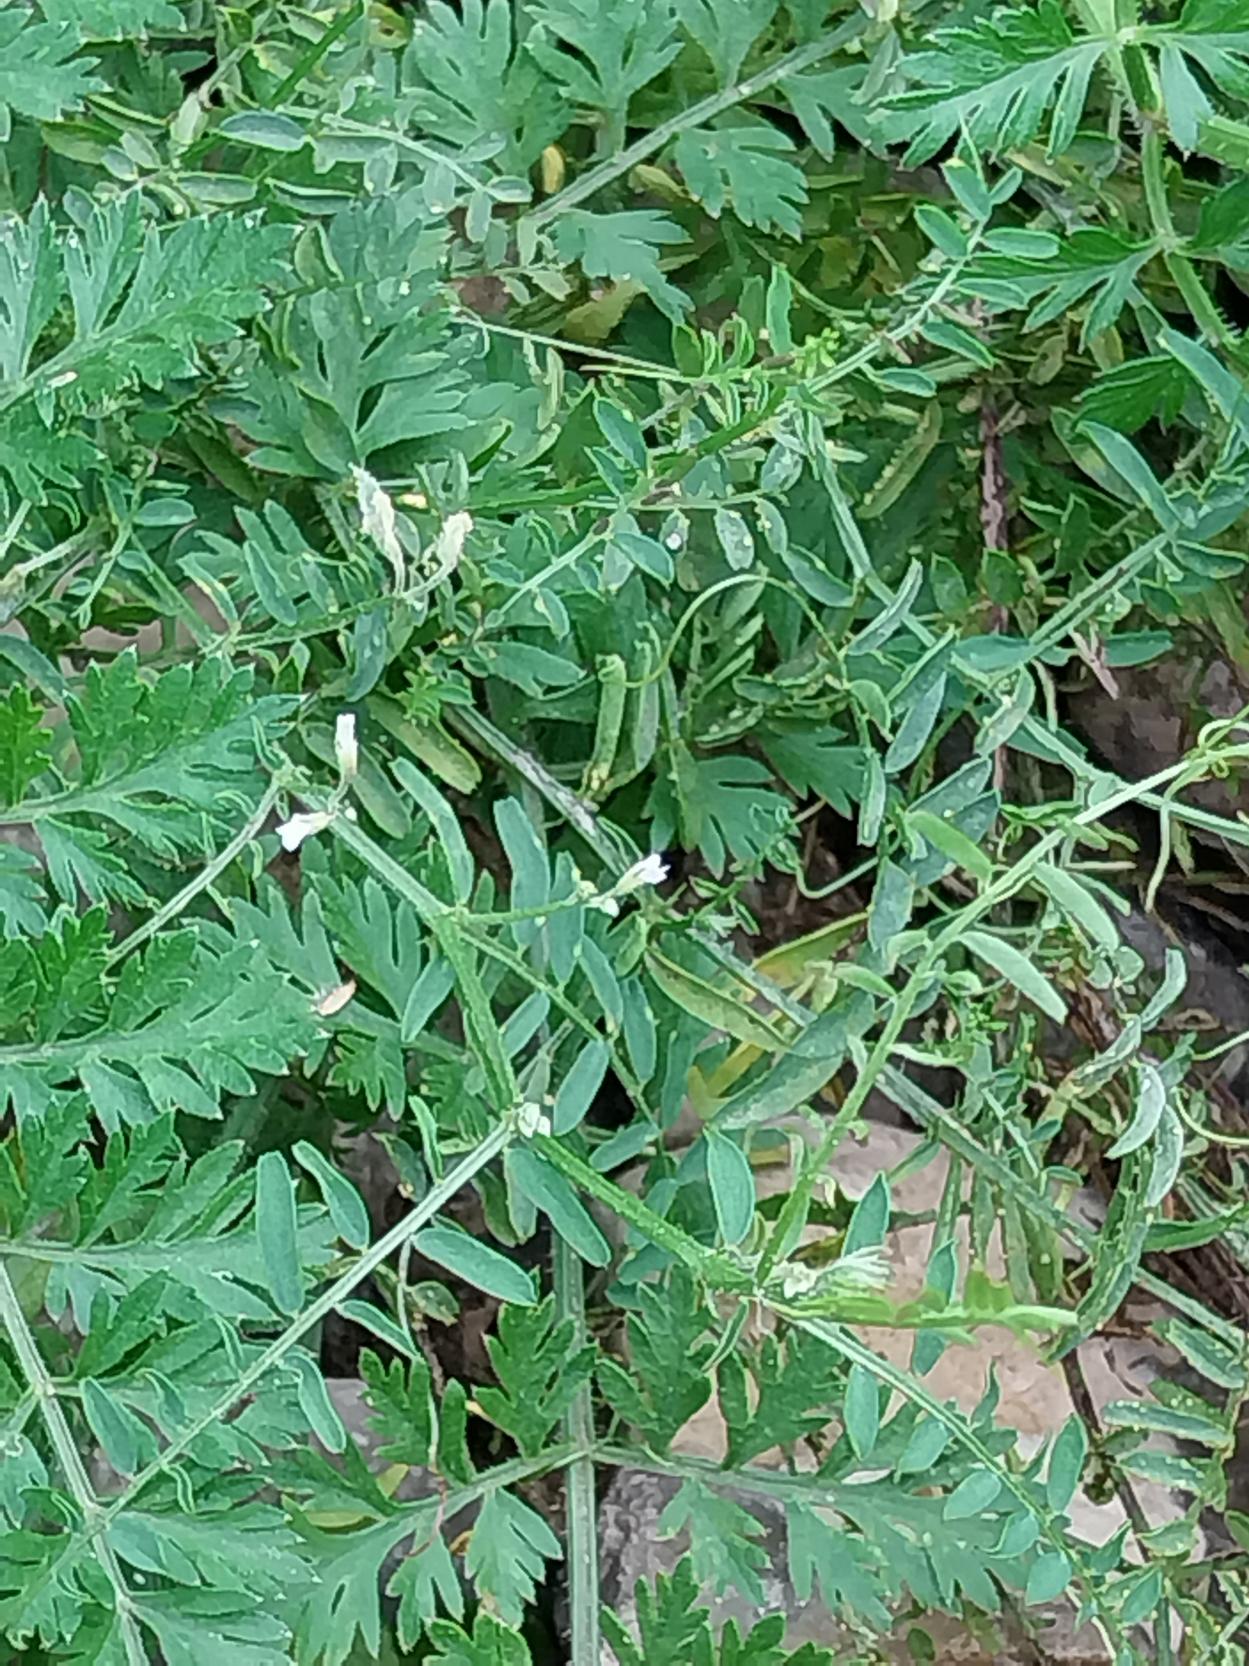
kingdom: Plantae
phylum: Tracheophyta
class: Magnoliopsida
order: Fabales
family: Fabaceae
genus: Vicia
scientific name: Vicia hirsuta
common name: Tofrøet vikke
